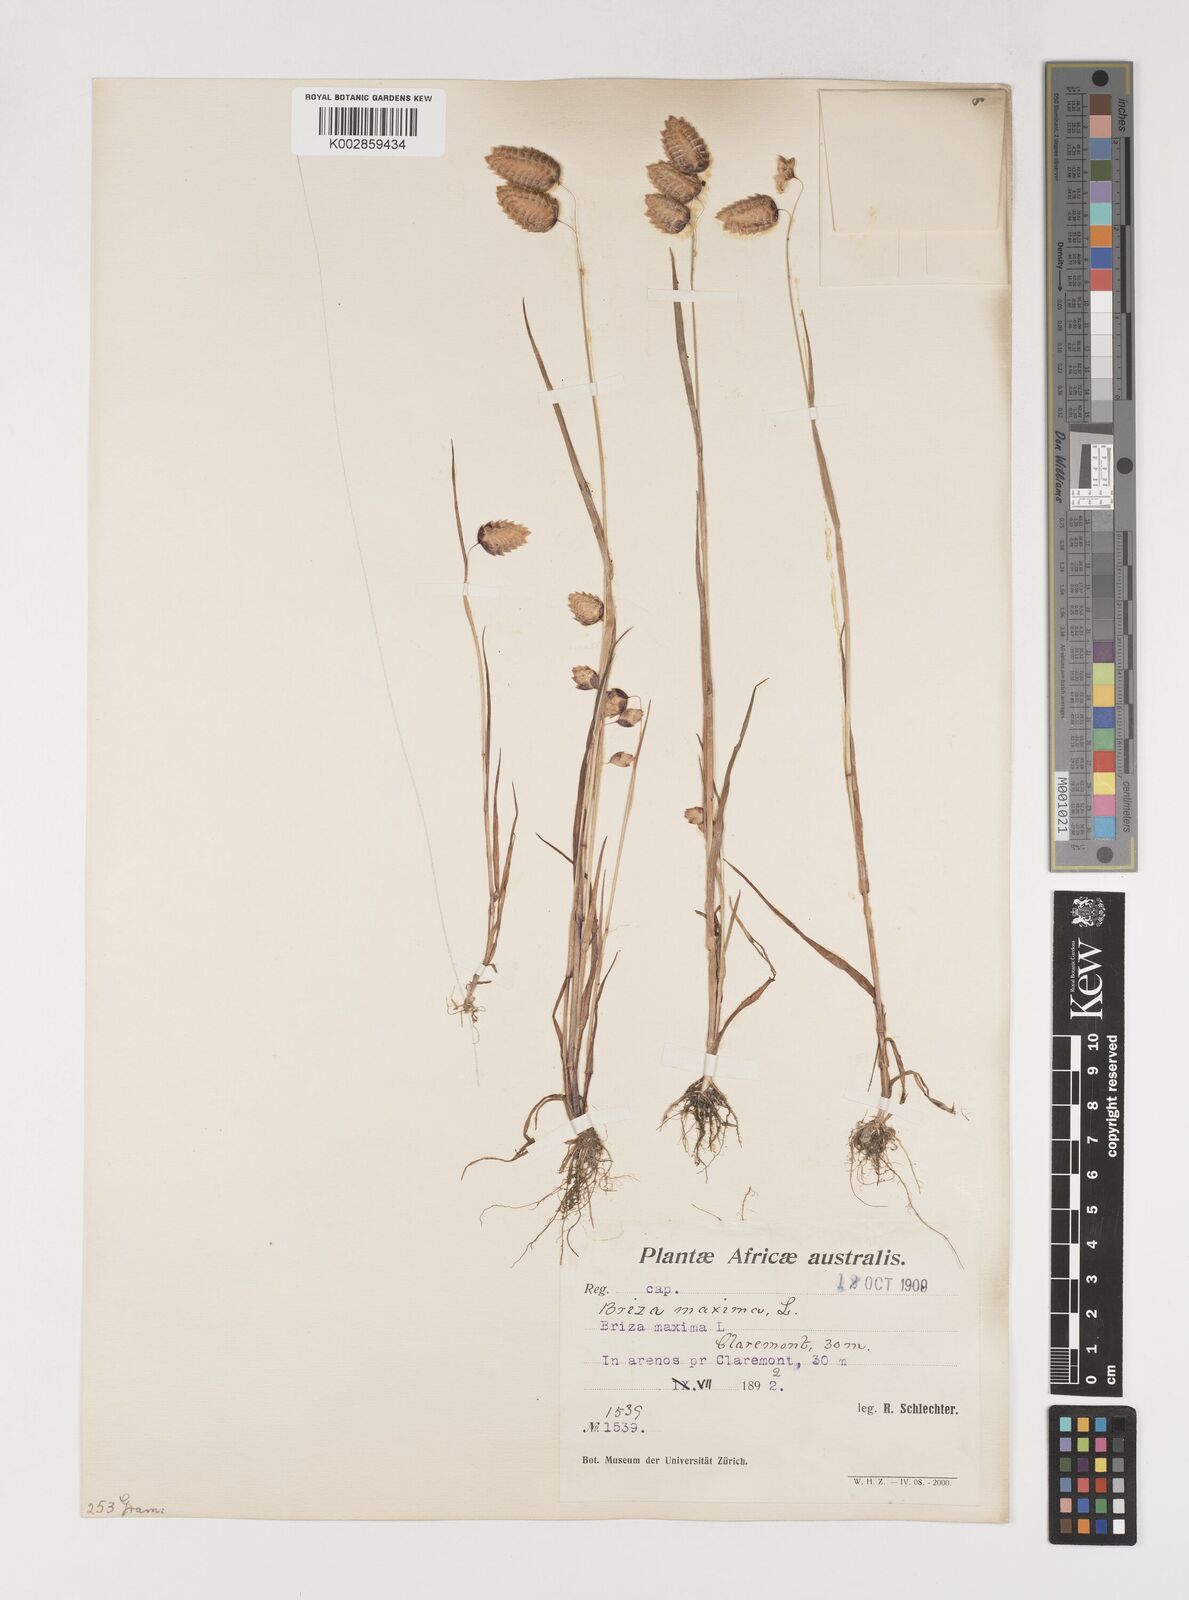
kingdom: Plantae
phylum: Tracheophyta
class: Liliopsida
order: Poales
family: Poaceae
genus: Briza
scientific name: Briza maxima
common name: Big quakinggrass
